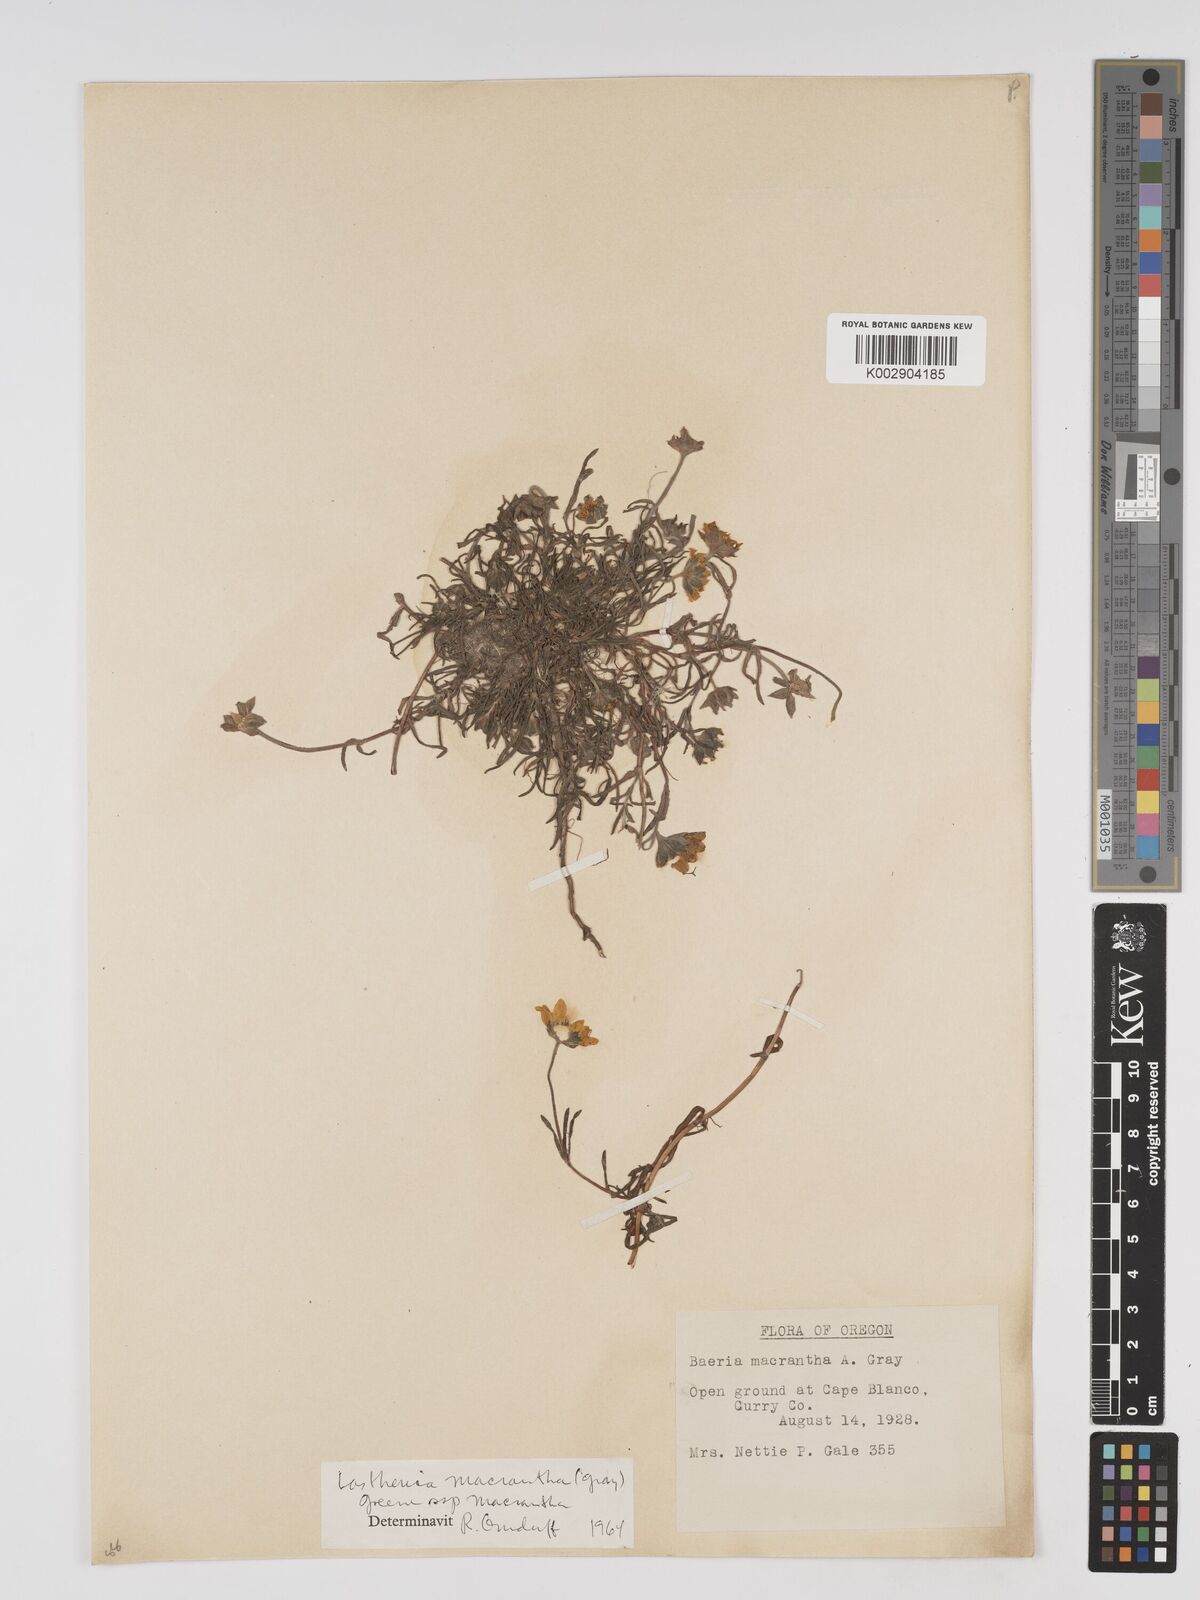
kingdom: Plantae
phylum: Tracheophyta
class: Magnoliopsida
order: Asterales
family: Asteraceae
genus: Lasthenia
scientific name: Lasthenia californica
